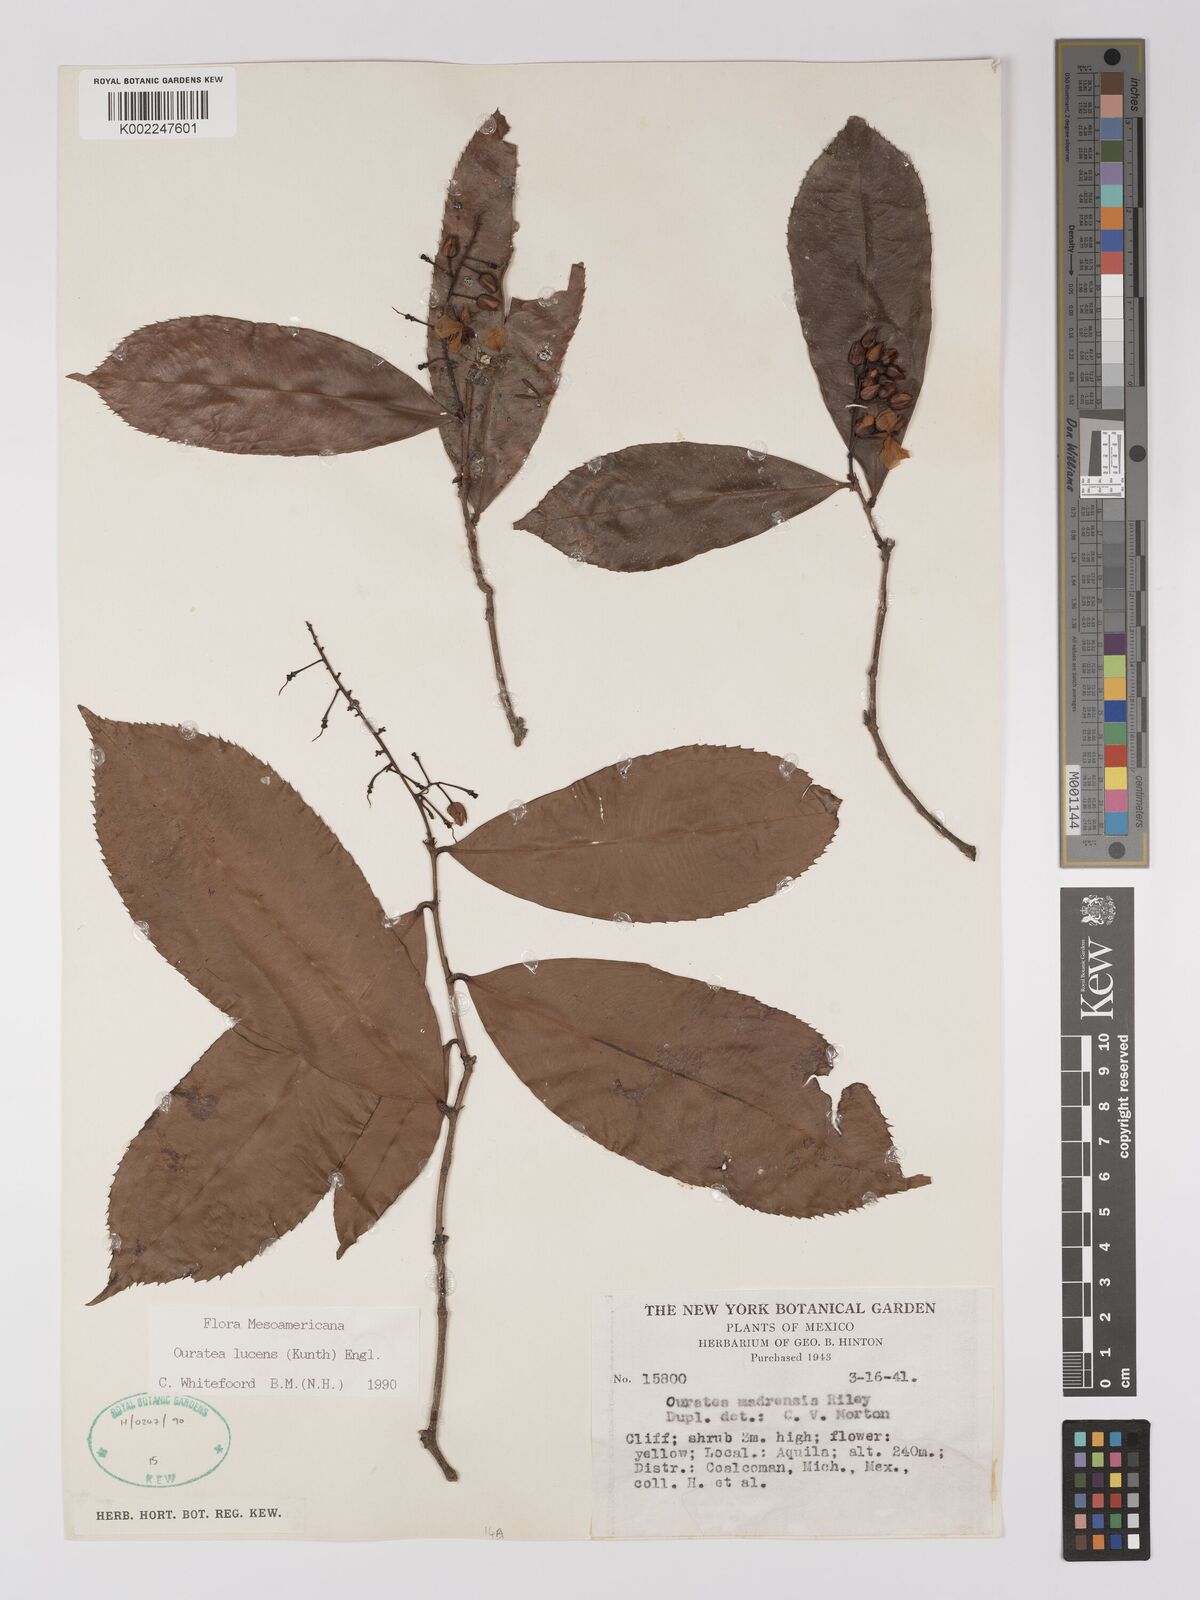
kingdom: Plantae
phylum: Tracheophyta
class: Magnoliopsida
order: Malpighiales
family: Ochnaceae
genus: Ouratea
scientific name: Ouratea lucens
